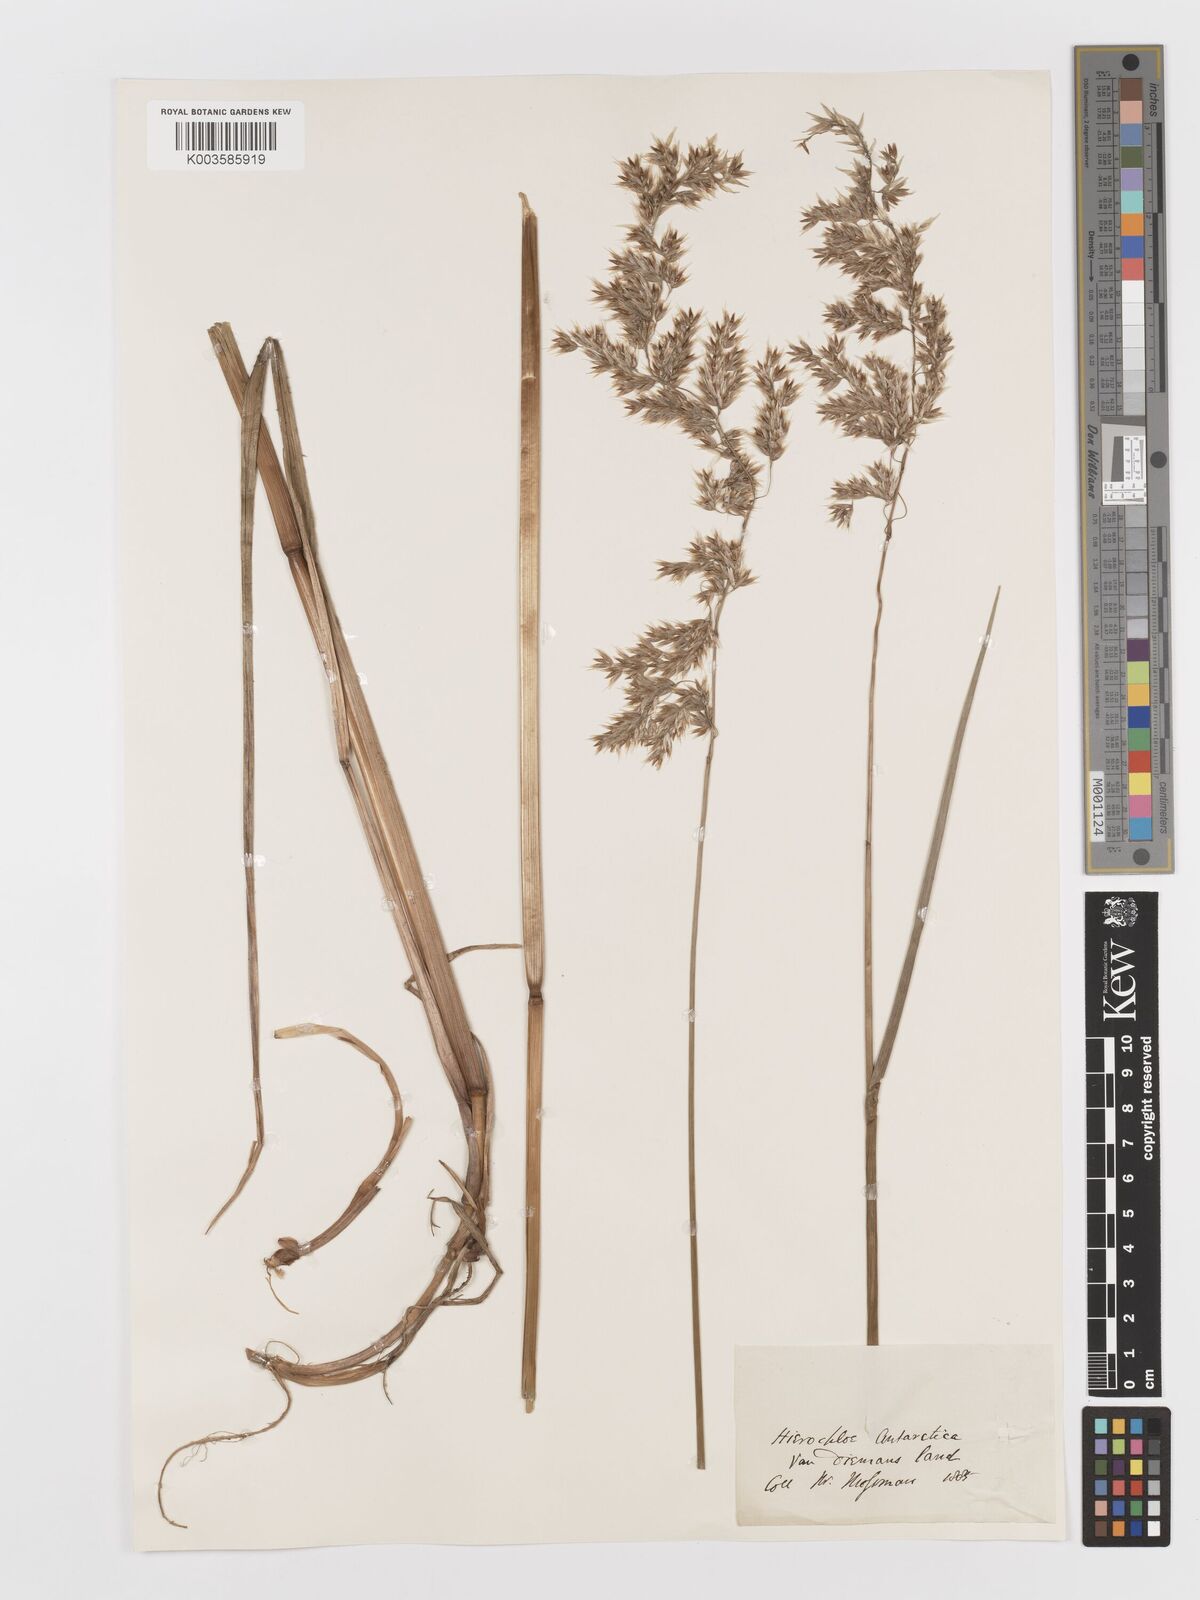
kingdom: Plantae
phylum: Tracheophyta
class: Liliopsida
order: Poales
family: Poaceae
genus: Anthoxanthum
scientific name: Anthoxanthum redolens
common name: Sweet holy grass
